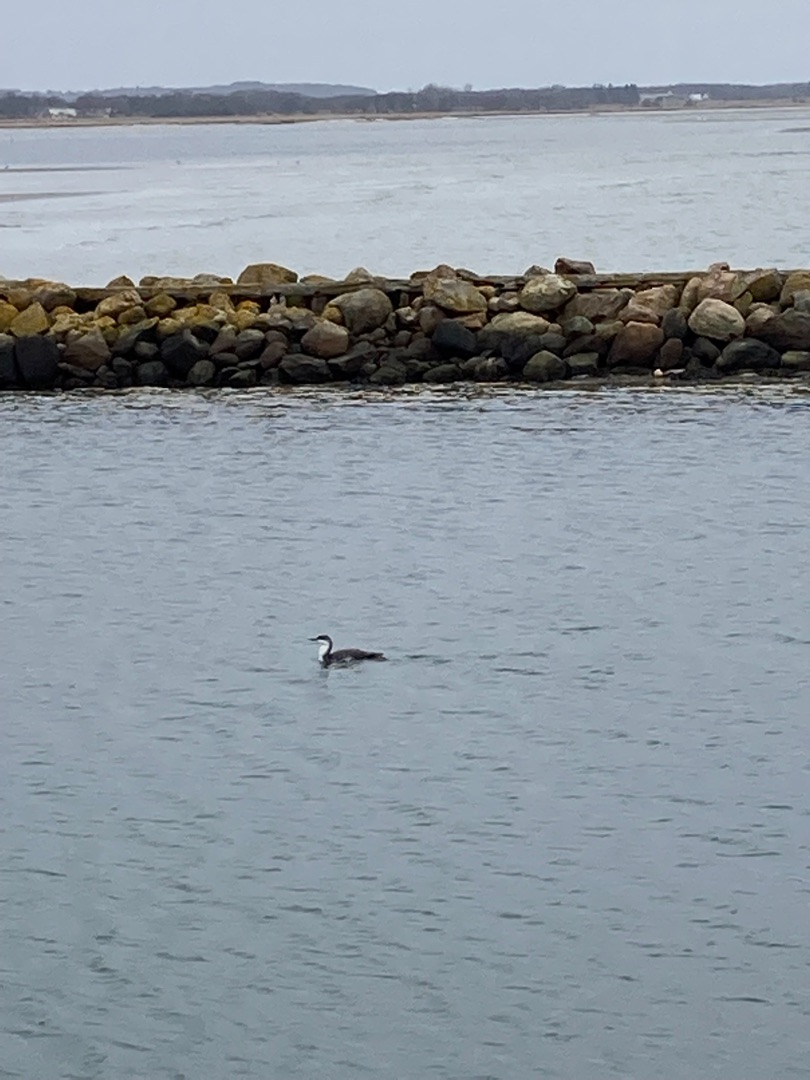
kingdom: Animalia
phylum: Chordata
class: Aves
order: Gaviiformes
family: Gaviidae
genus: Gavia
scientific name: Gavia stellata
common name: Rødstrubet lom
